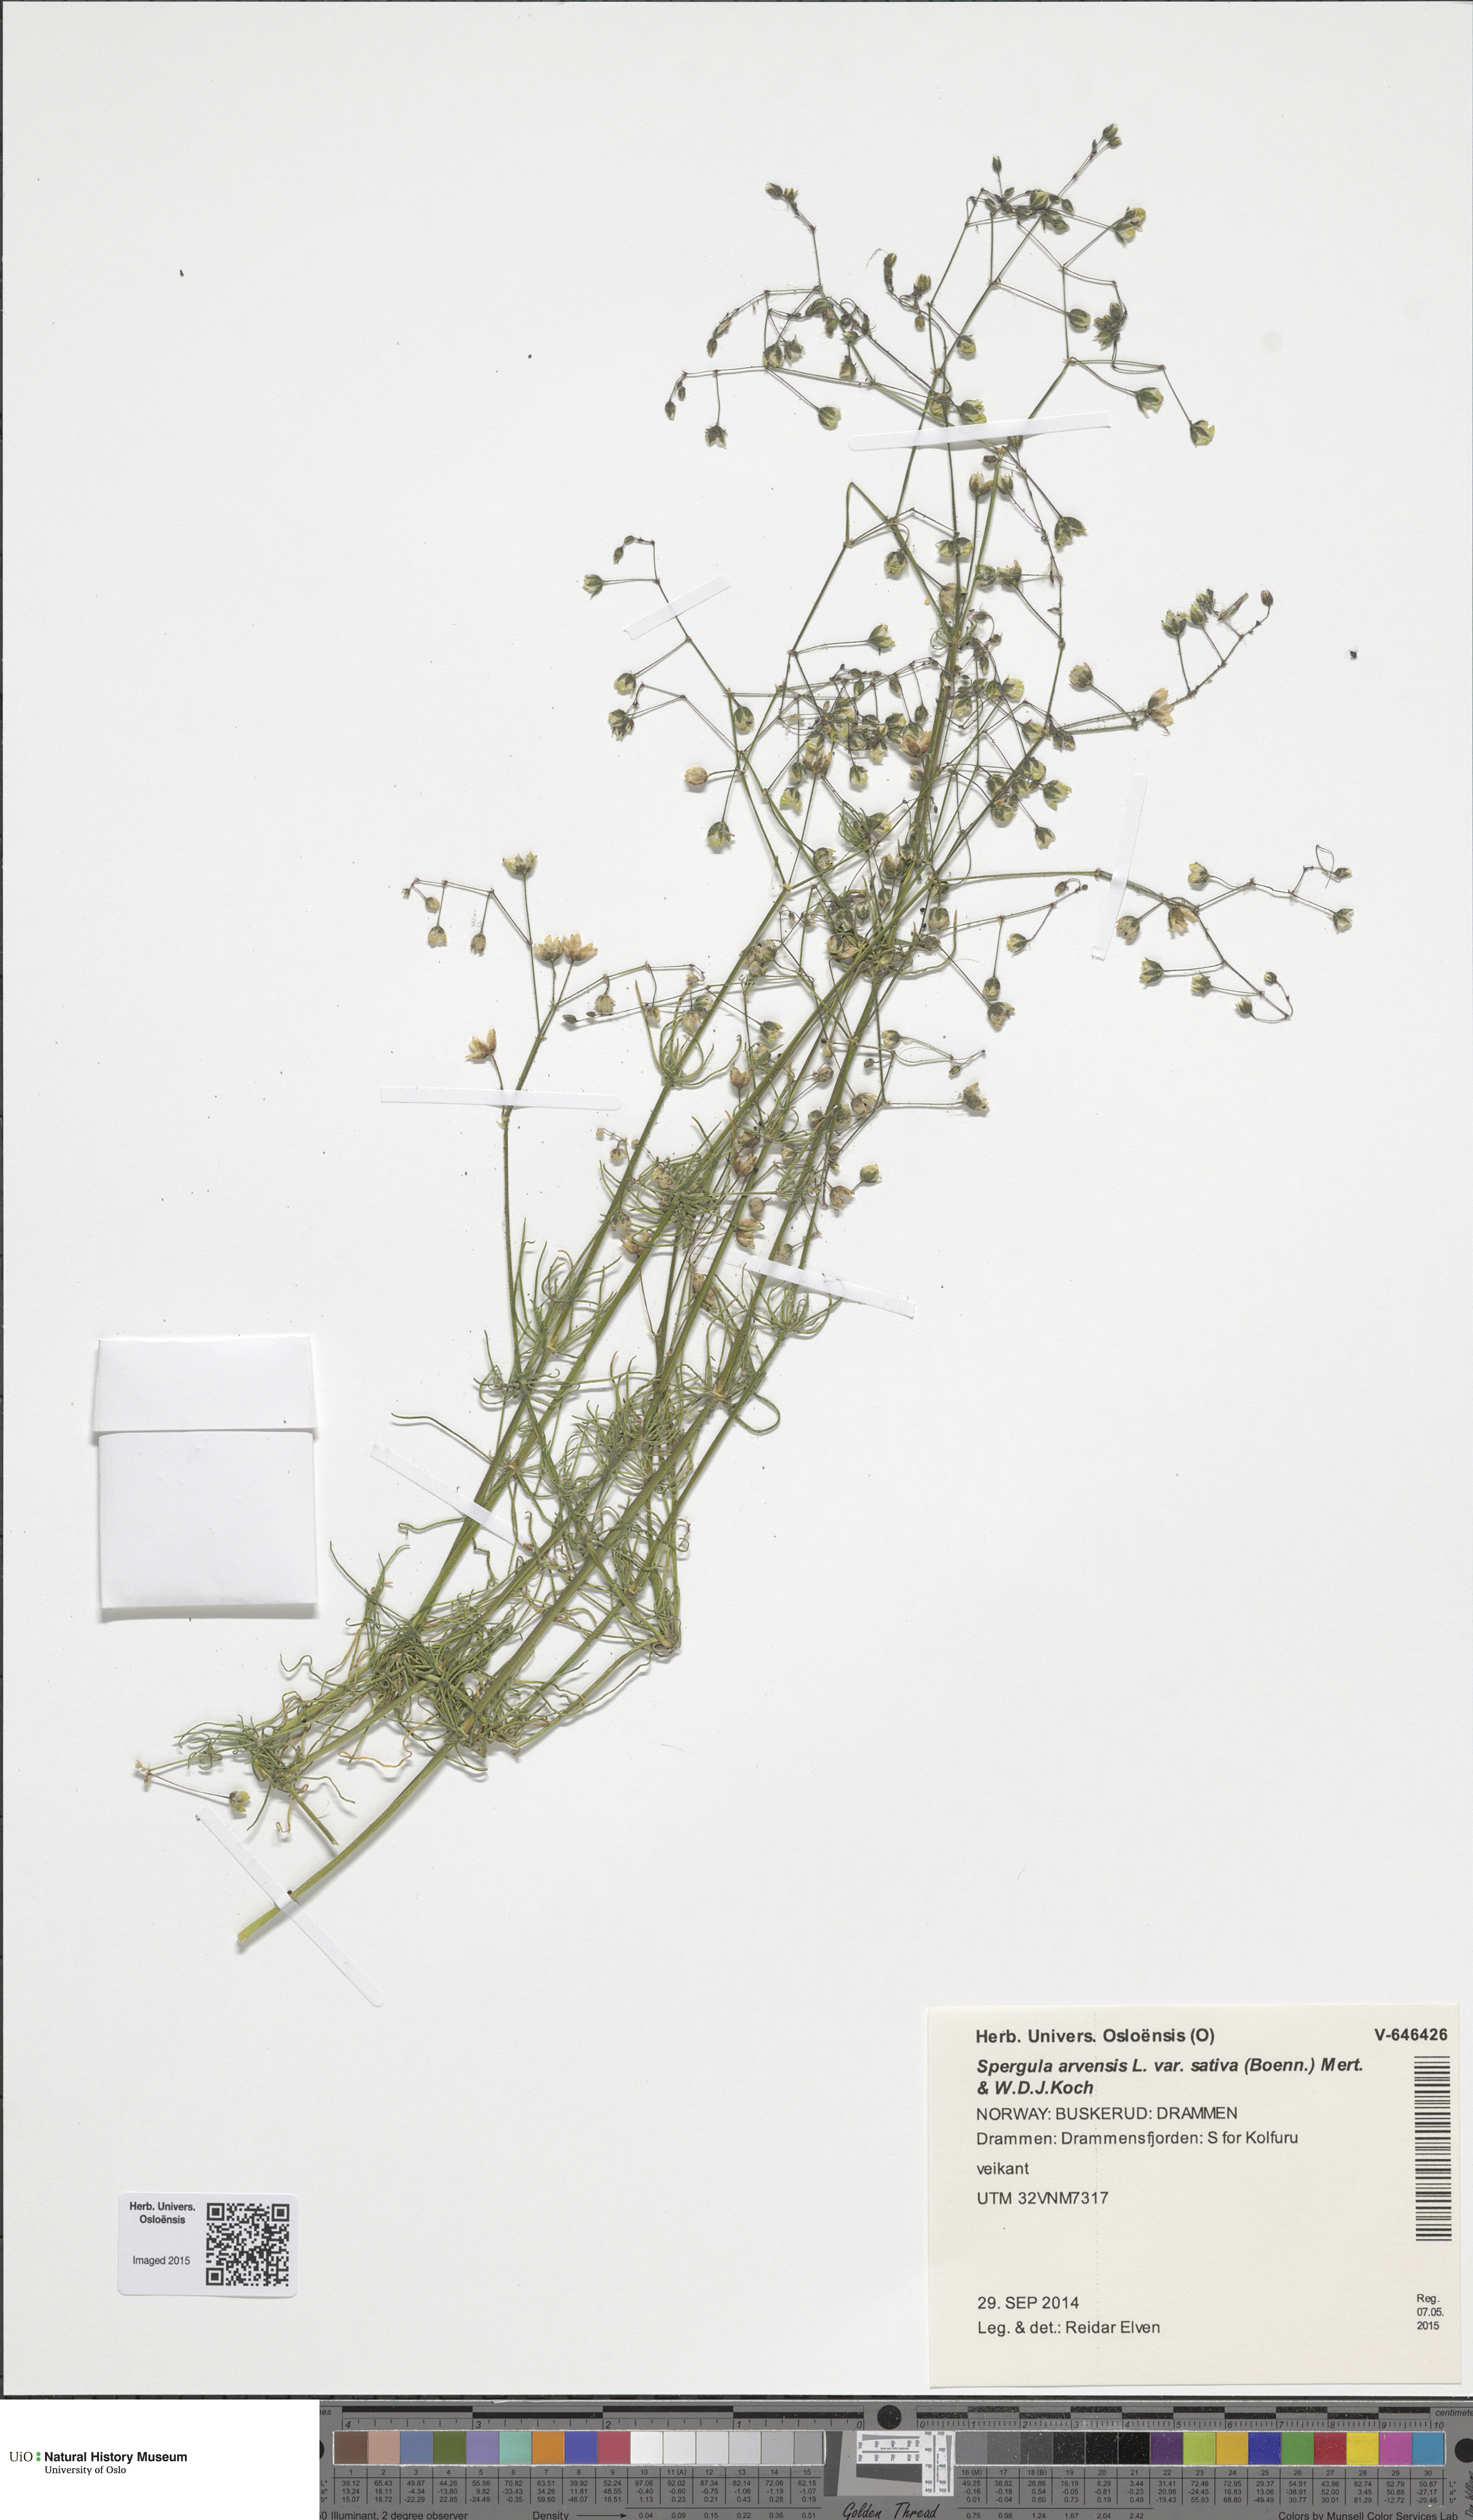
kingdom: Plantae
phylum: Tracheophyta
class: Magnoliopsida
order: Caryophyllales
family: Caryophyllaceae
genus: Spergula
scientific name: Spergula arvensis
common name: Corn spurrey
